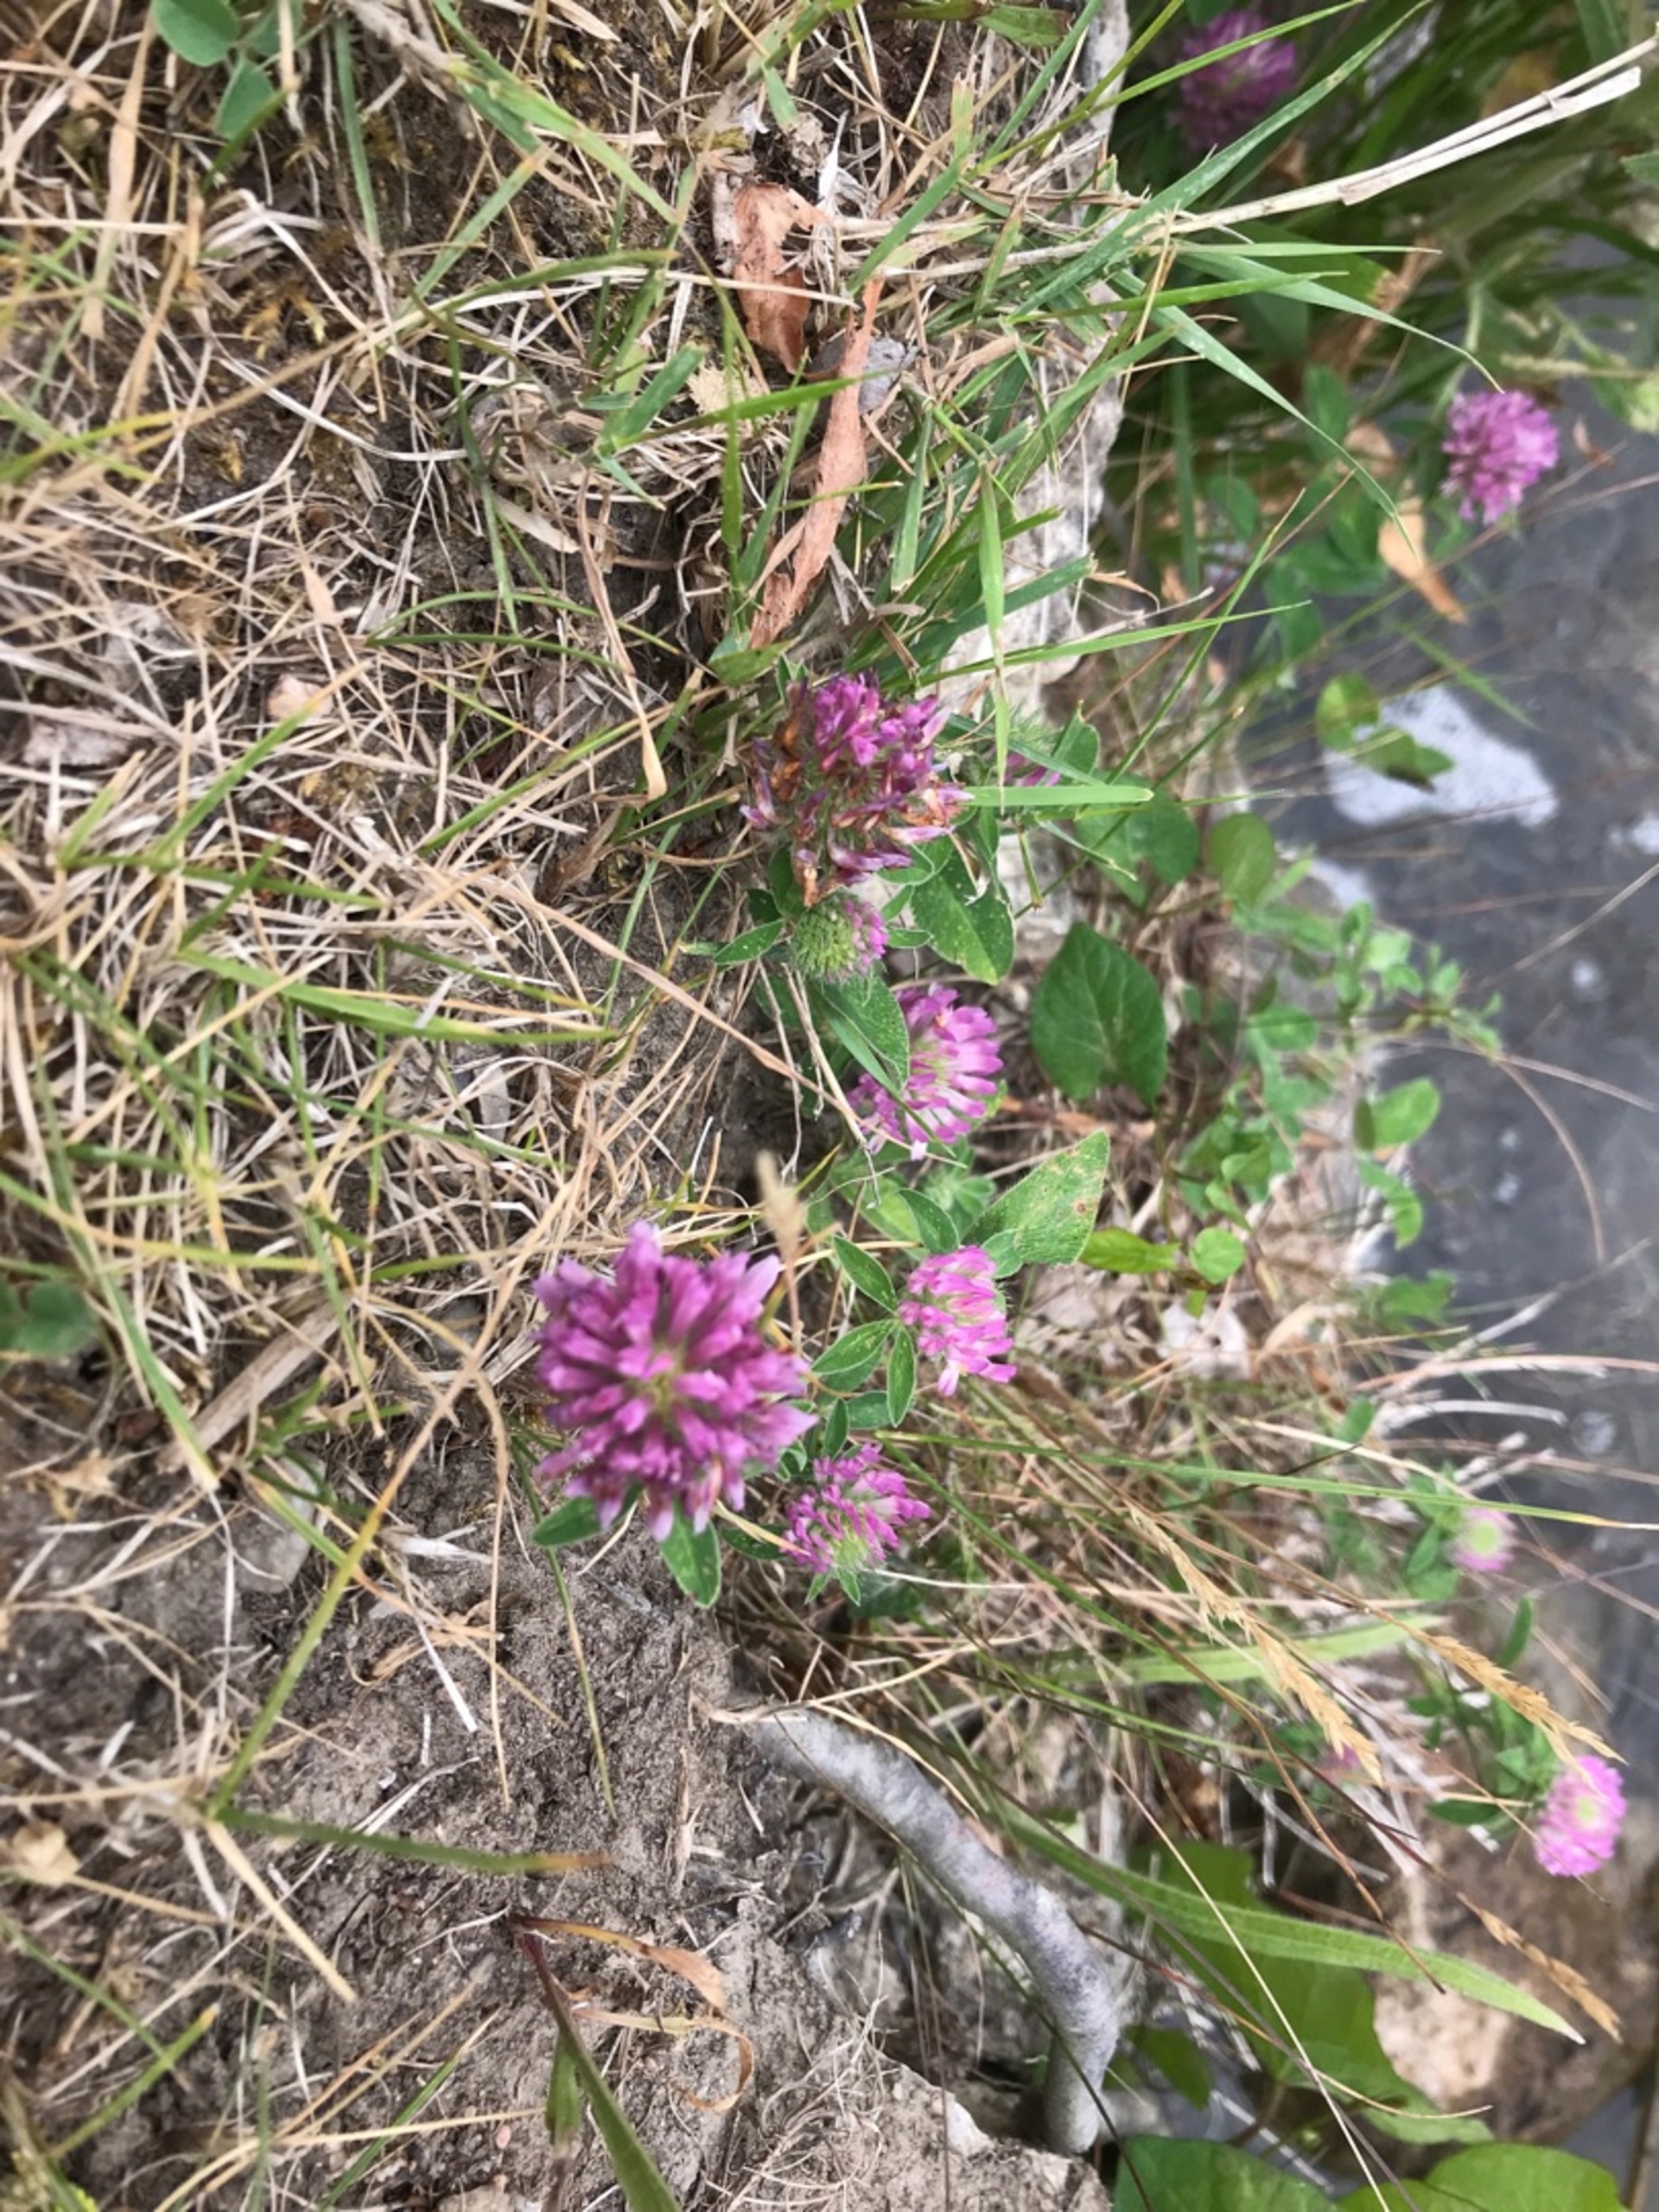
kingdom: Plantae
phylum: Tracheophyta
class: Magnoliopsida
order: Fabales
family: Fabaceae
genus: Trifolium
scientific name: Trifolium pratense
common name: Rød-kløver
